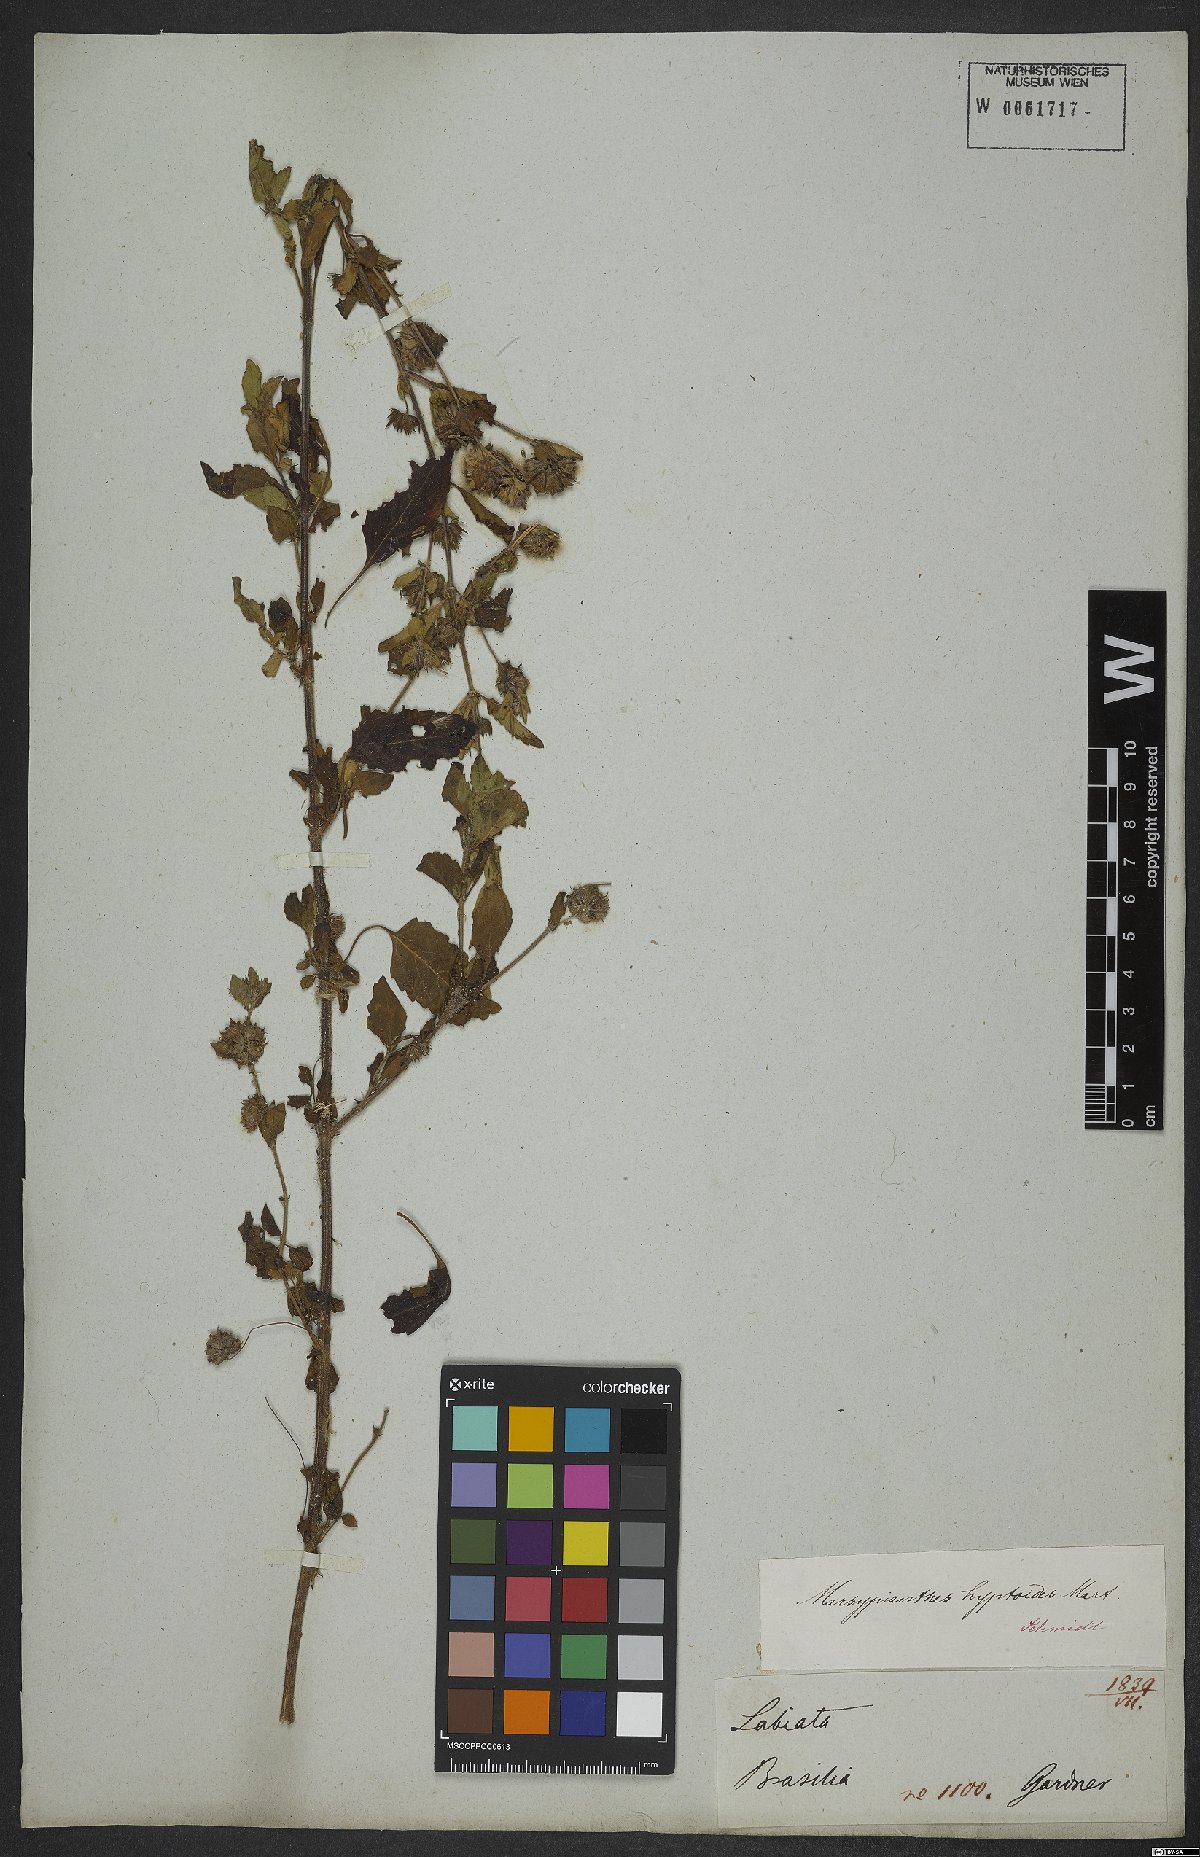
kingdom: Plantae
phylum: Tracheophyta
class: Magnoliopsida
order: Lamiales
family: Lamiaceae
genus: Marsypianthes
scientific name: Marsypianthes chamaedrys
